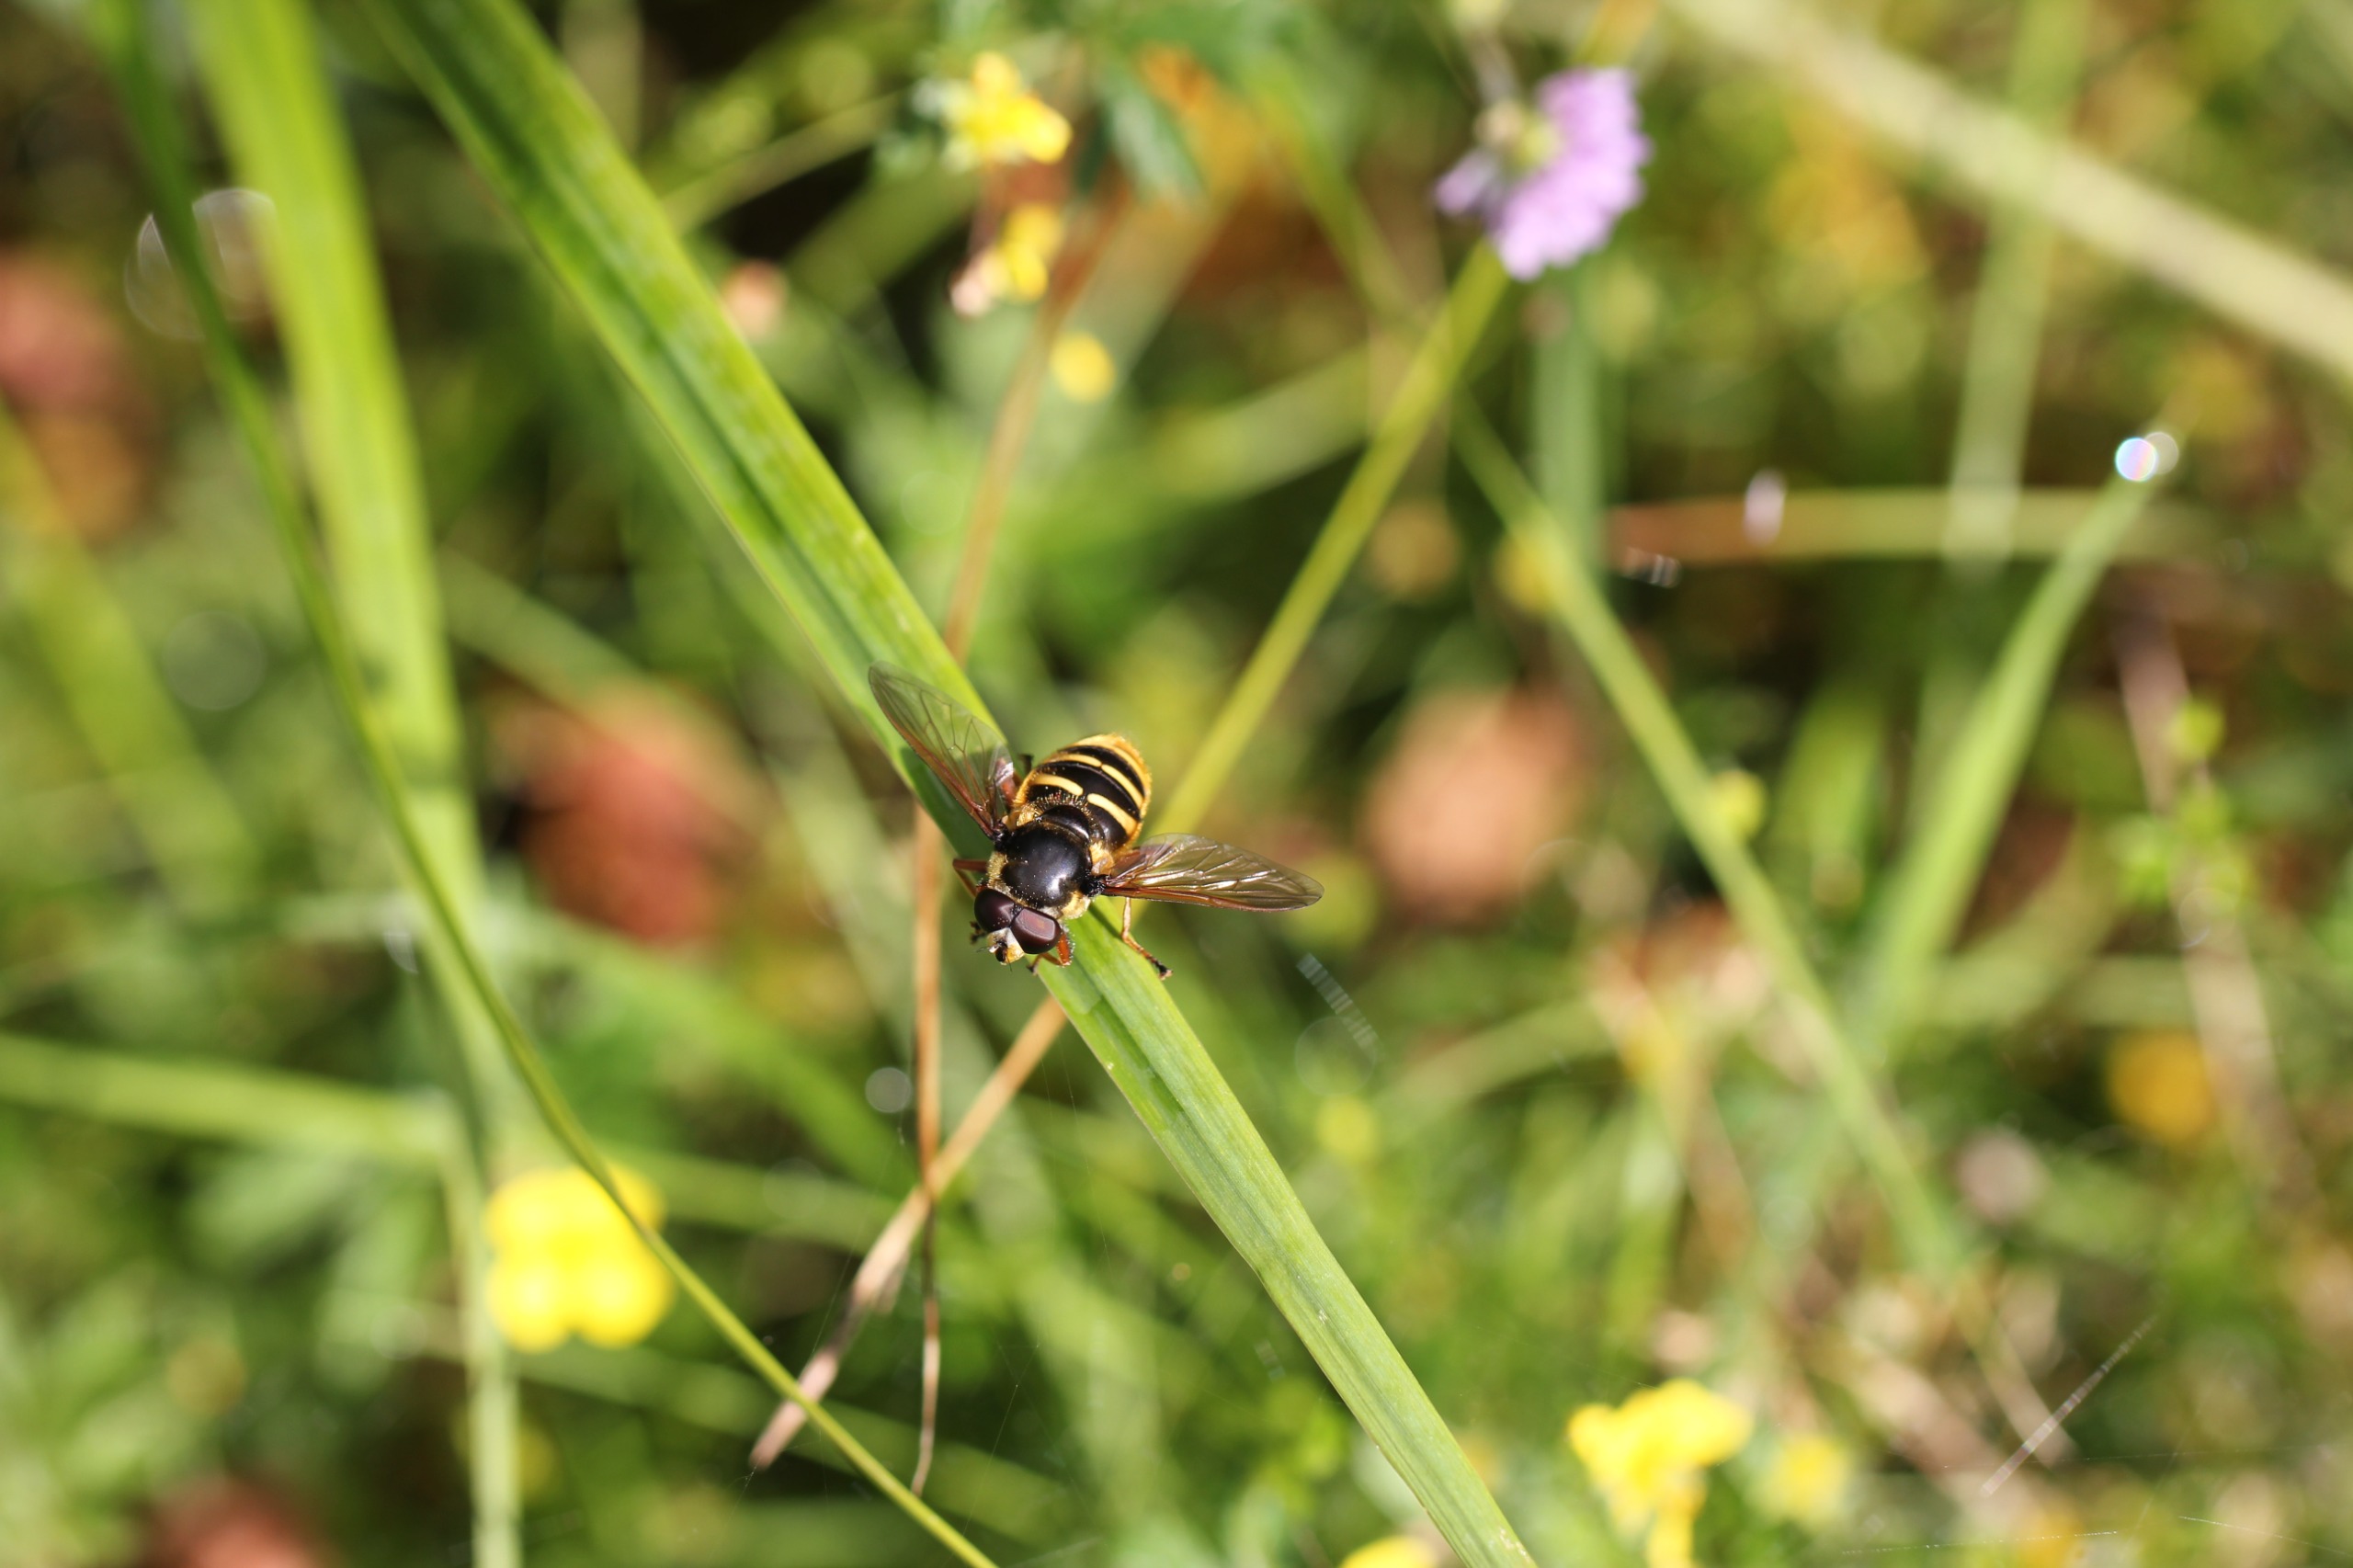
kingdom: Animalia
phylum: Arthropoda
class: Insecta
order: Diptera
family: Syrphidae
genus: Sericomyia
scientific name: Sericomyia silentis
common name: Tørve-silkesvirreflue
